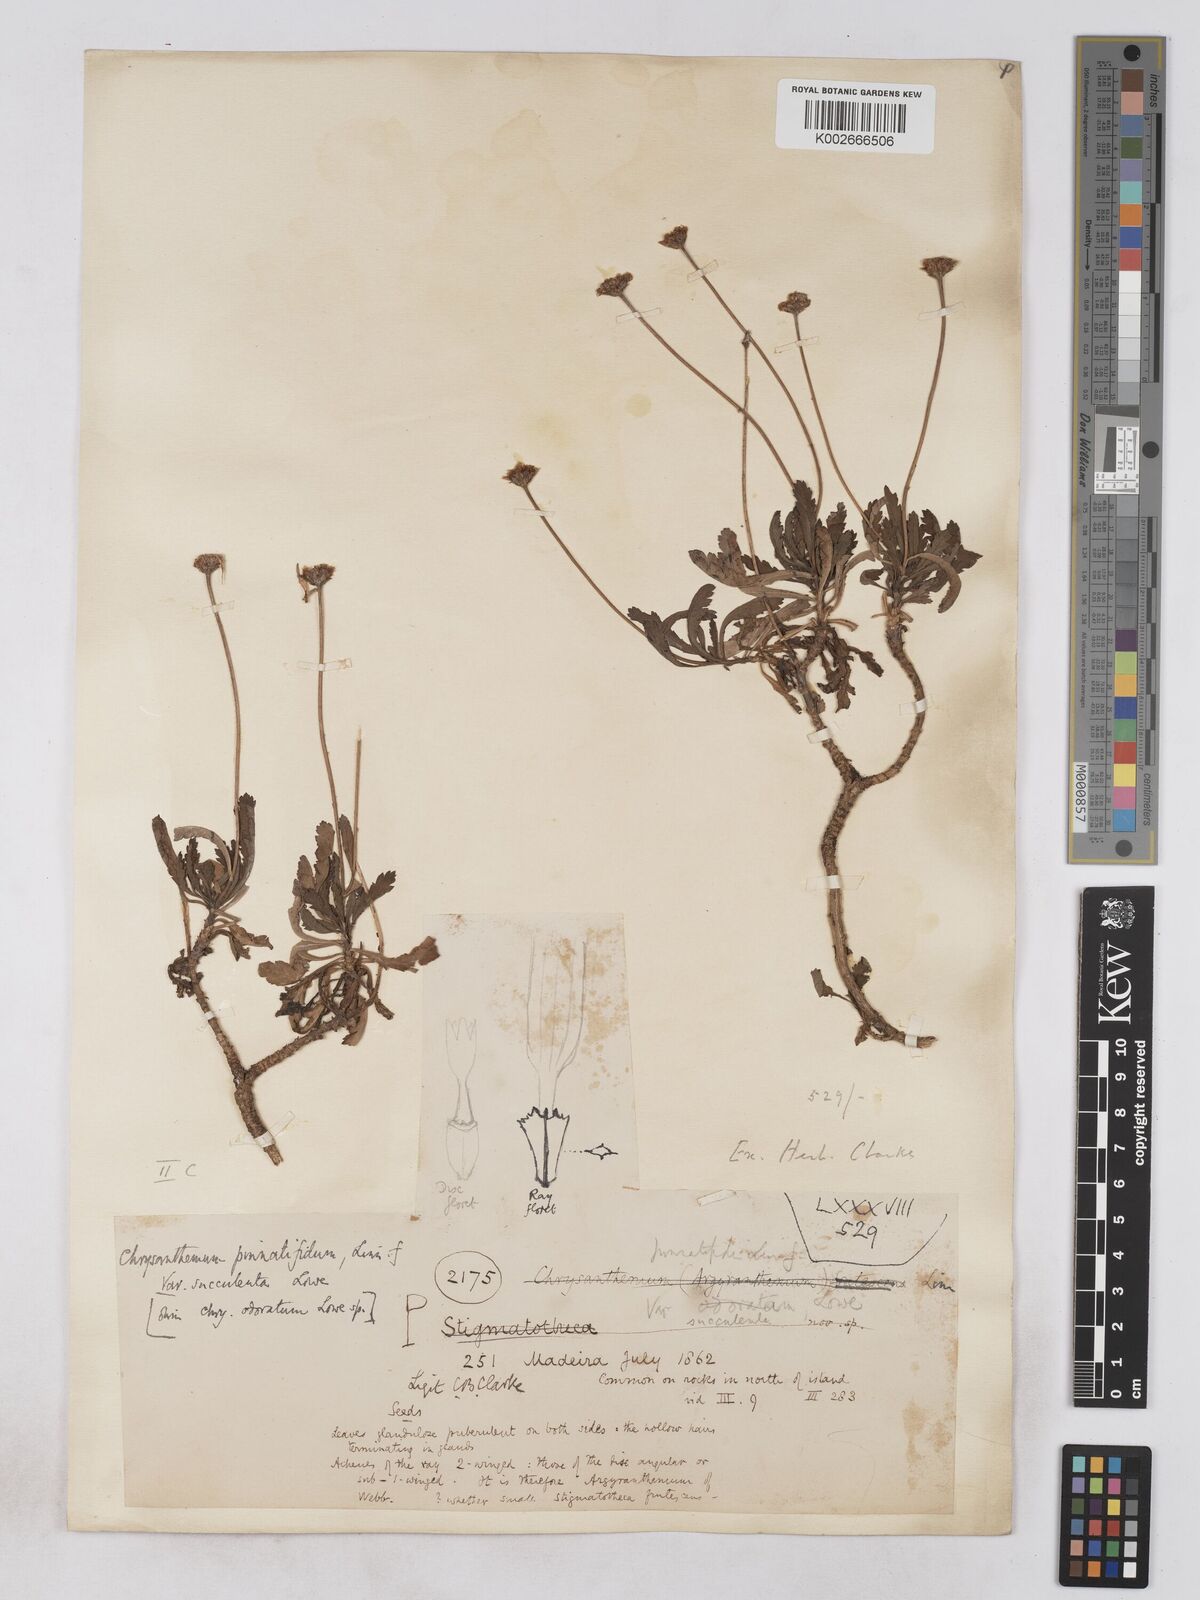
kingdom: Plantae
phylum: Tracheophyta
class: Magnoliopsida
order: Asterales
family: Asteraceae
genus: Argyranthemum
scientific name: Argyranthemum pinnatifidum
